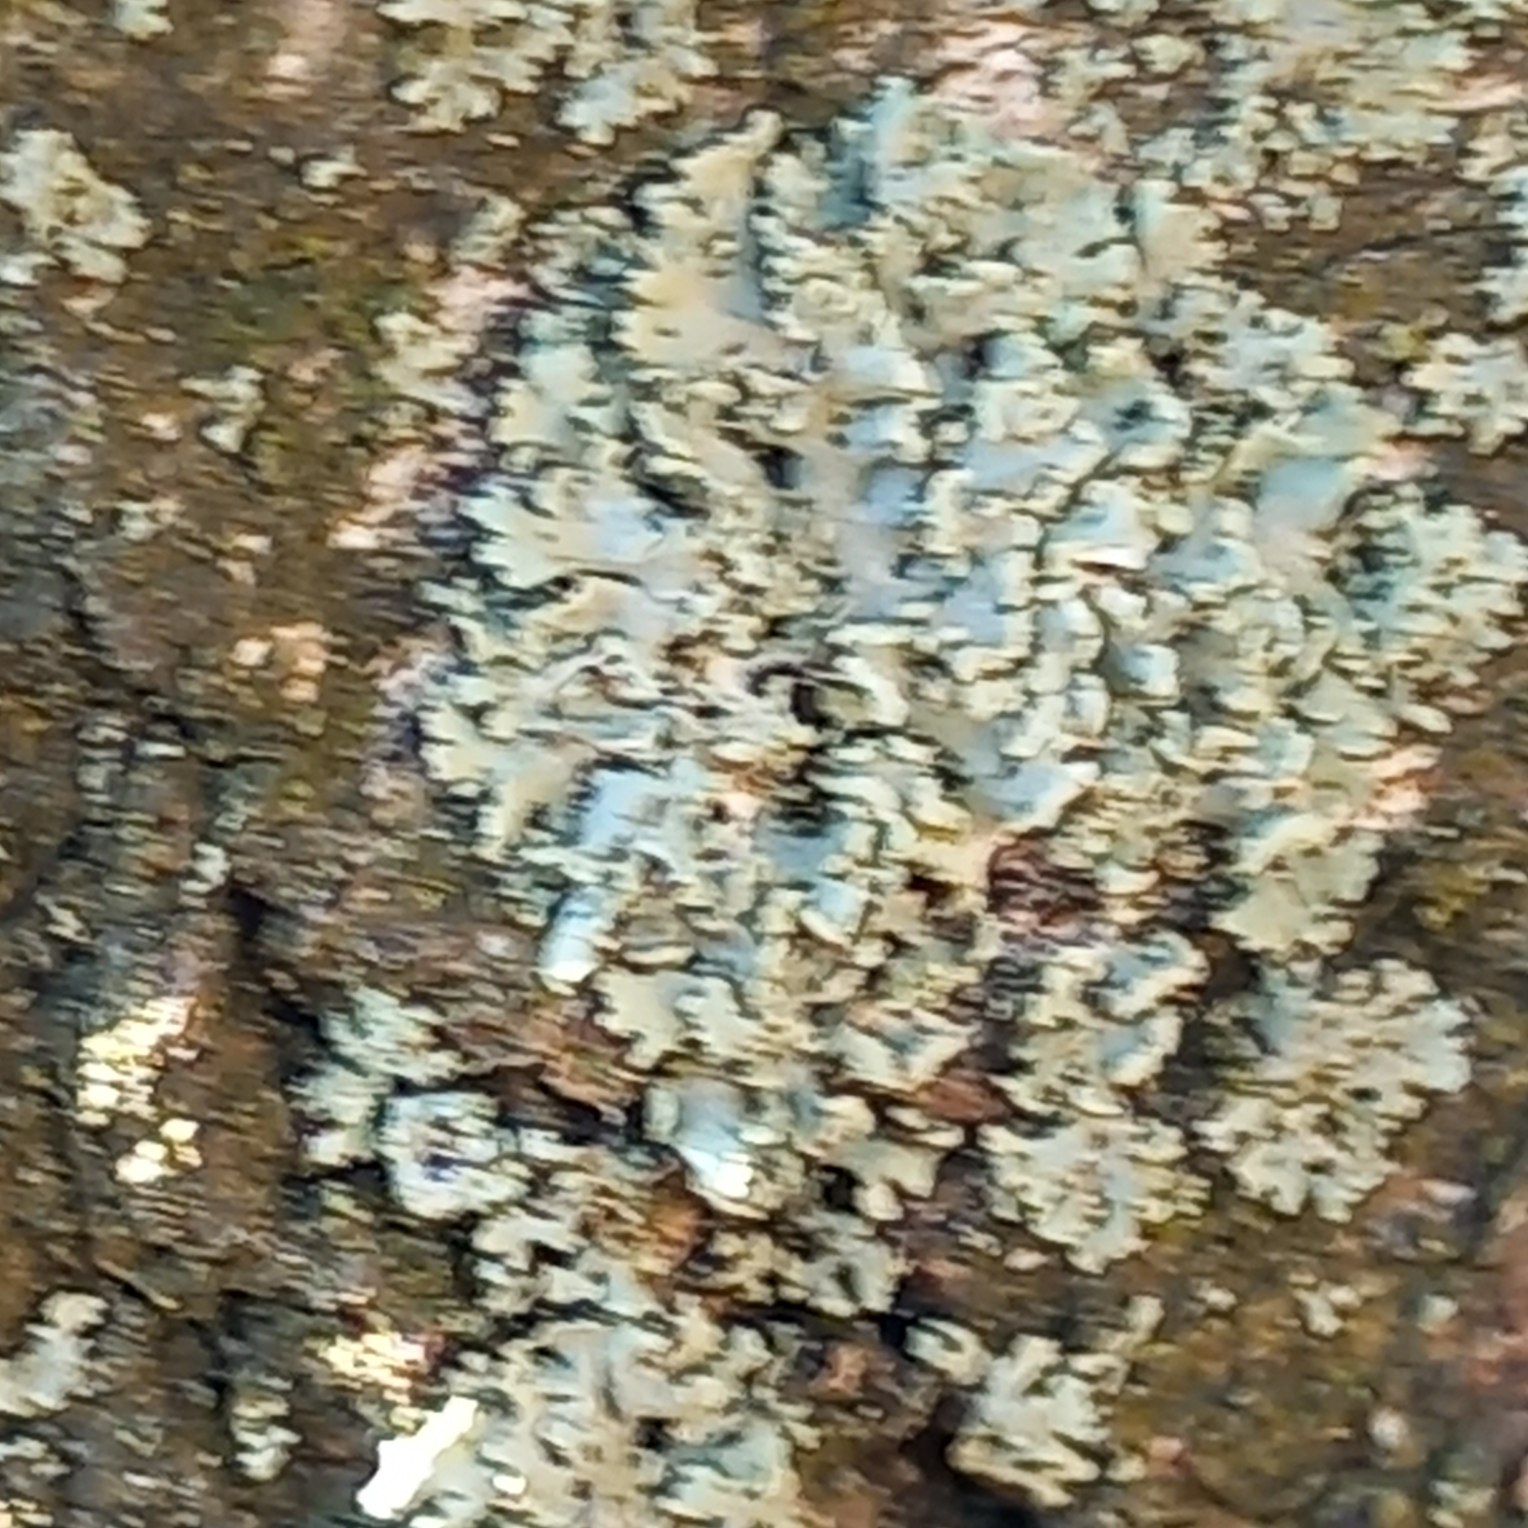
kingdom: Fungi
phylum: Ascomycota
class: Lecanoromycetes
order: Lecanorales
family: Parmeliaceae
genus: Hypogymnia
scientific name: Hypogymnia physodes
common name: Almindelig kvistlav
